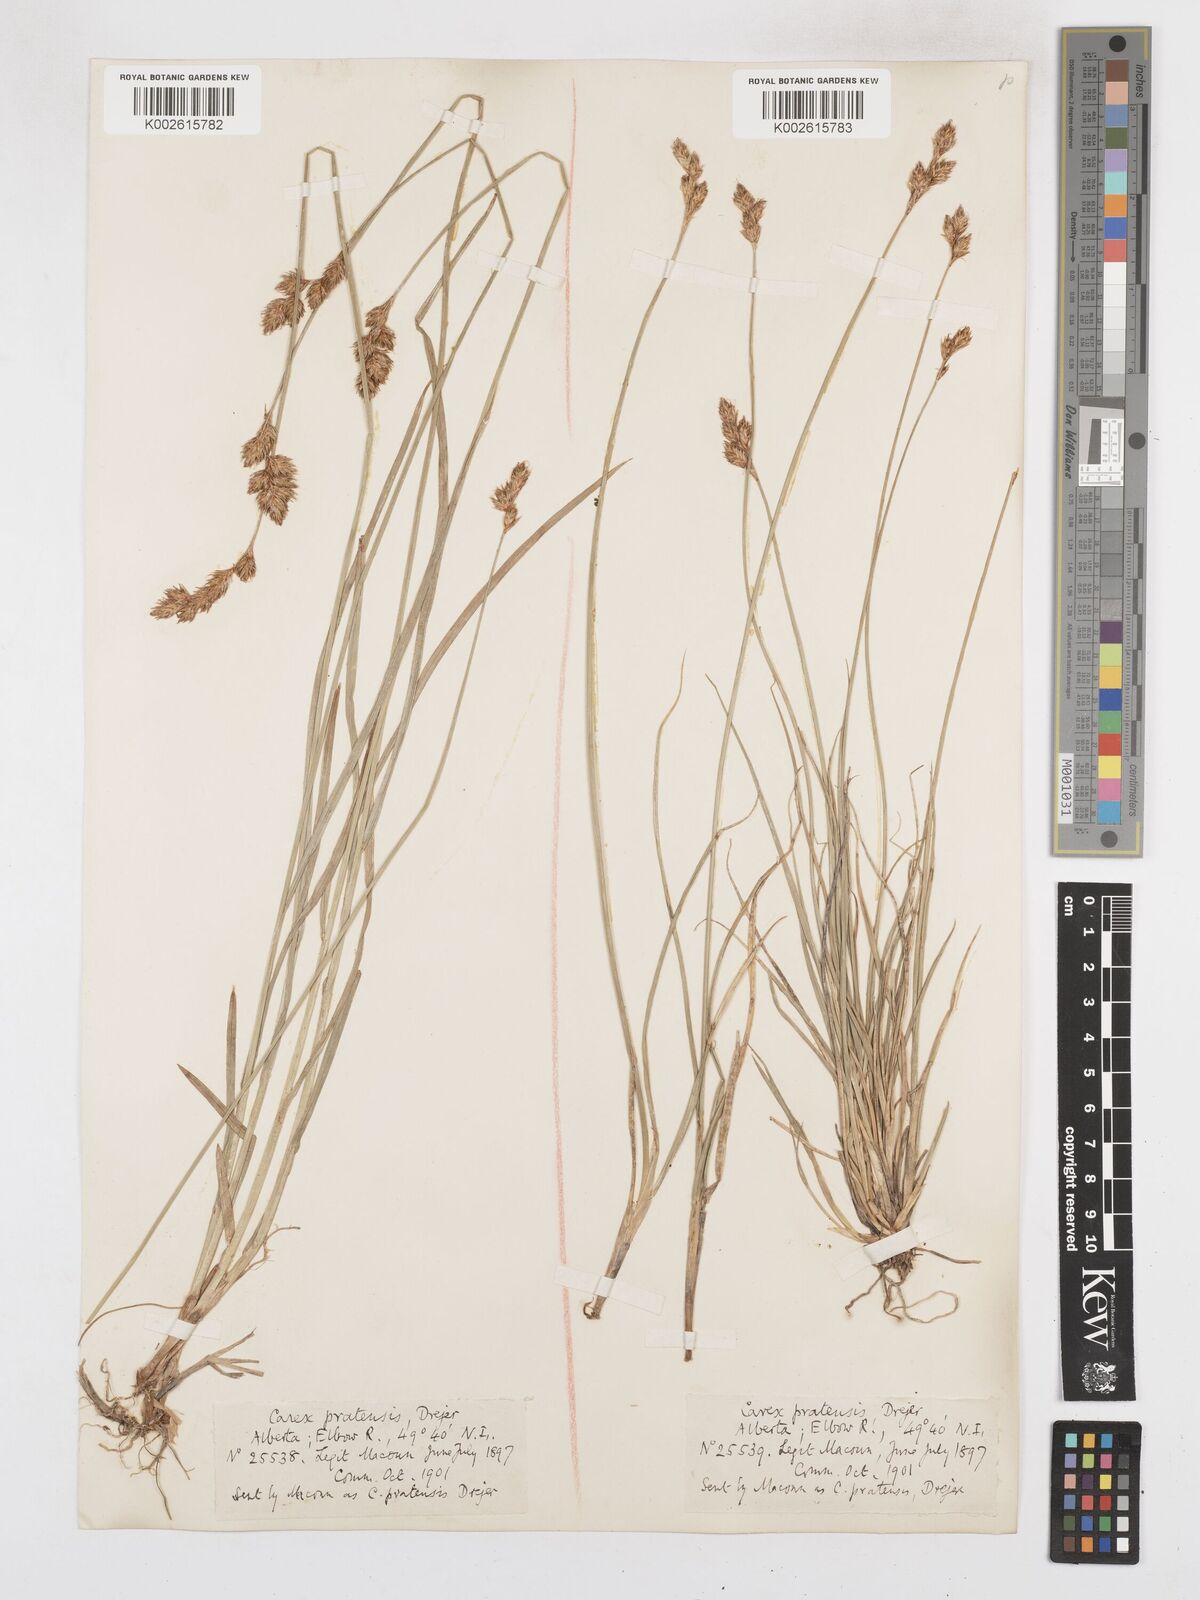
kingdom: Plantae
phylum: Tracheophyta
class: Liliopsida
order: Poales
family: Cyperaceae
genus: Carex
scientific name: Carex praticola
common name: Large-fruited oval sedge
